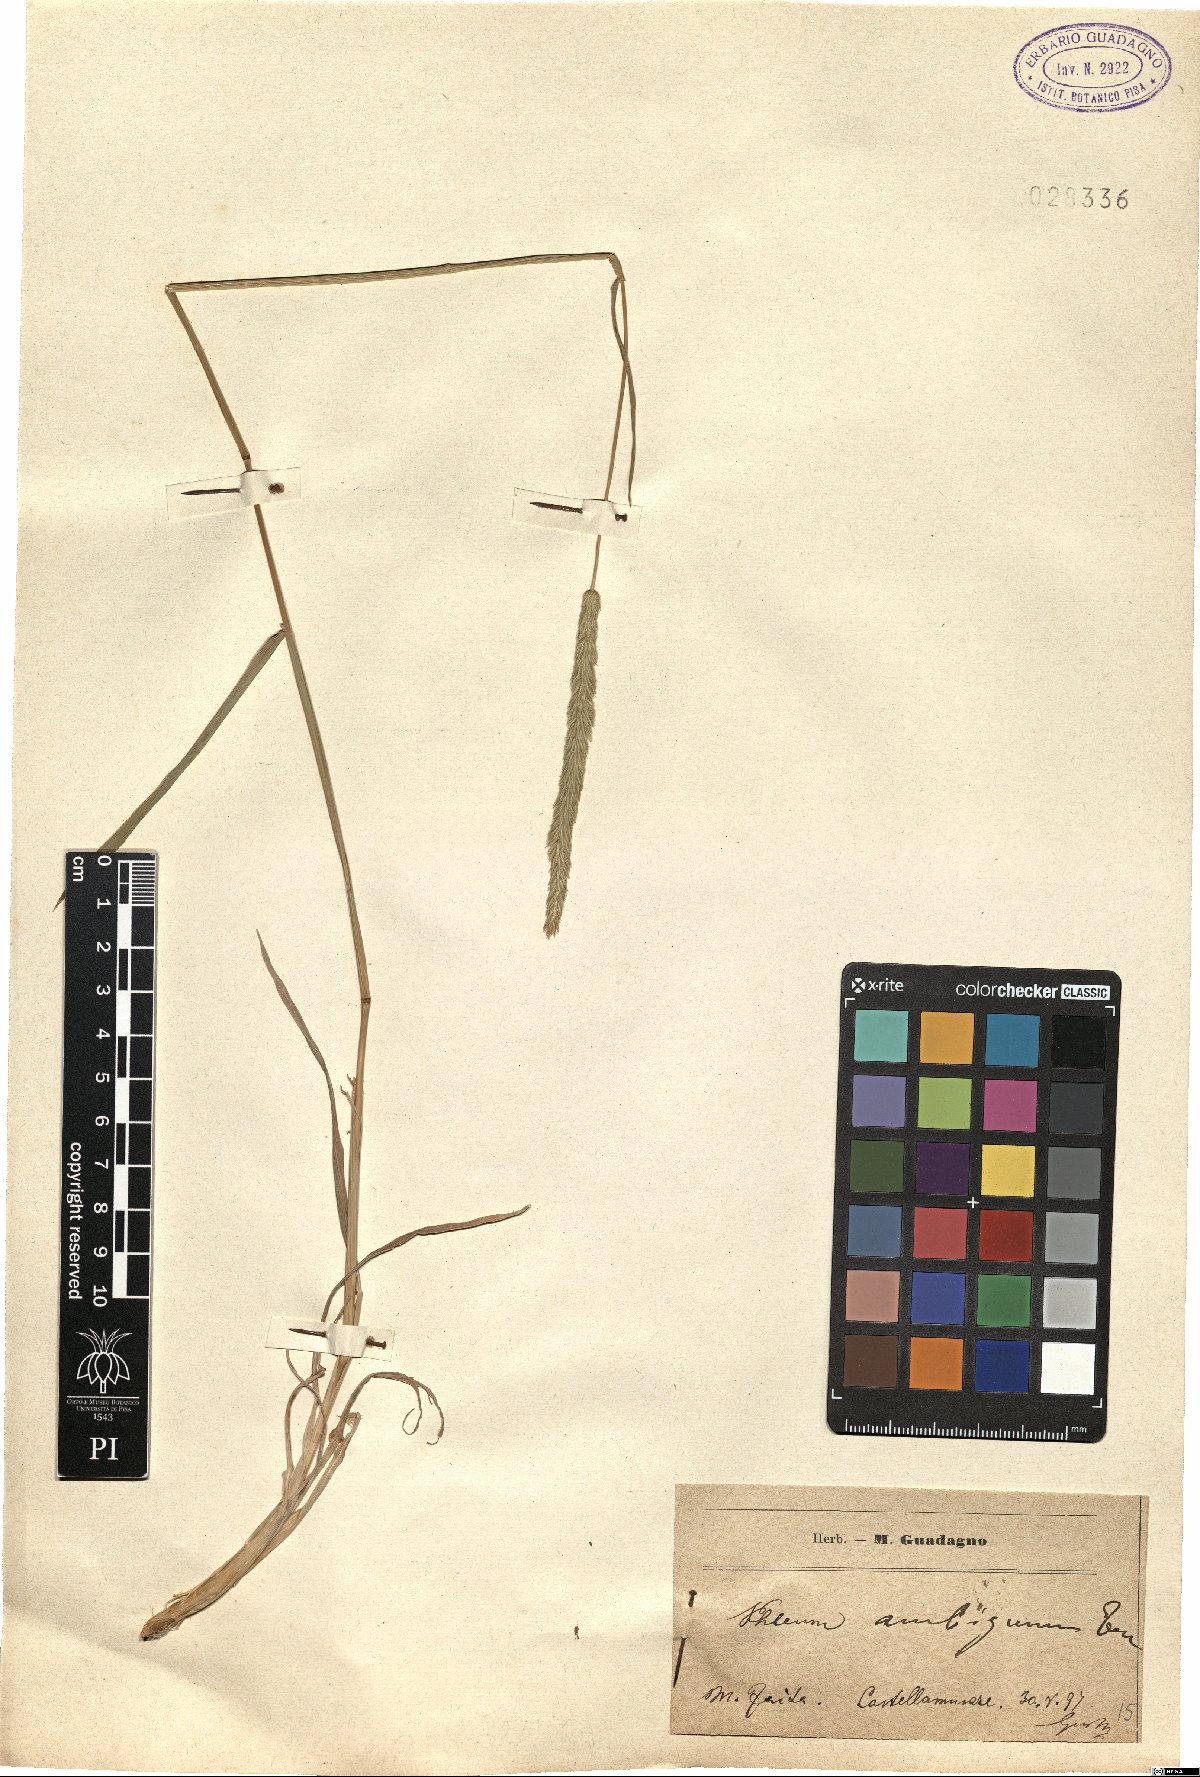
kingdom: Plantae
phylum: Tracheophyta
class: Liliopsida
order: Poales
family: Poaceae
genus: Phleum
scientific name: Phleum hirsutum
